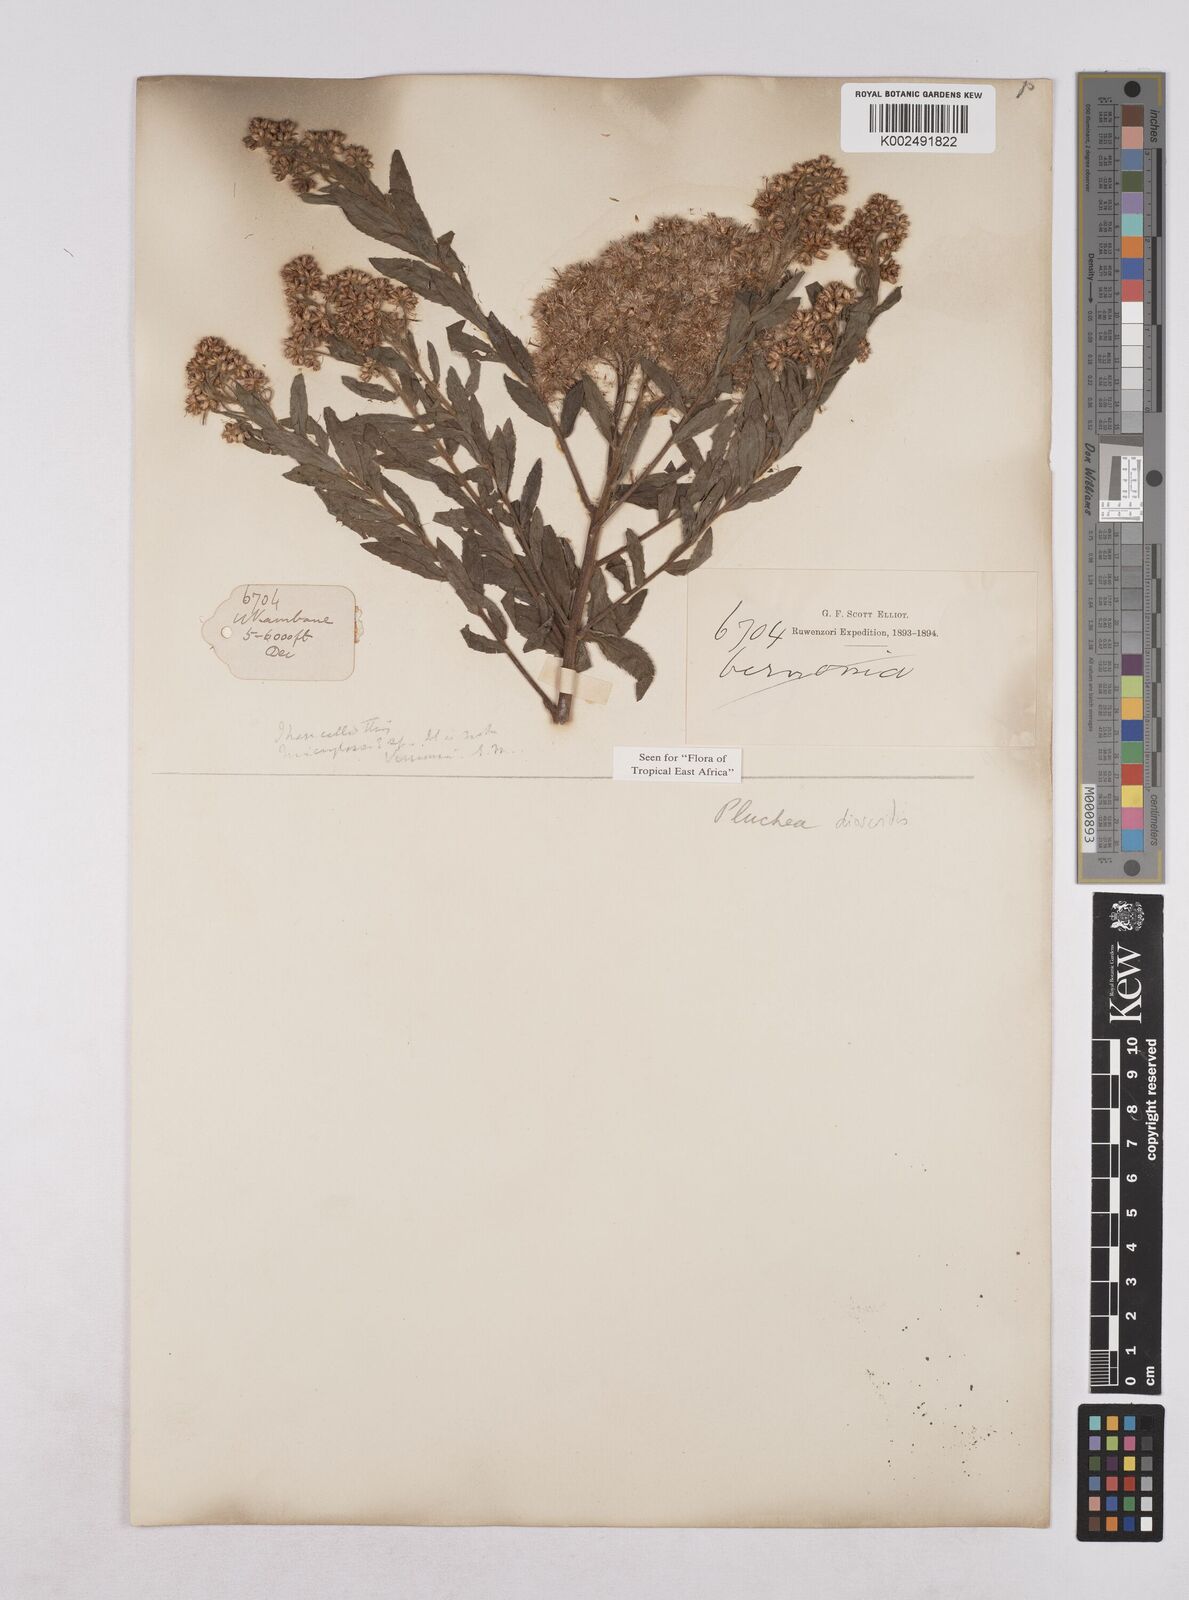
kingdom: Plantae
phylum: Tracheophyta
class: Magnoliopsida
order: Asterales
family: Asteraceae
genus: Pluchea
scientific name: Pluchea dioscoridis
